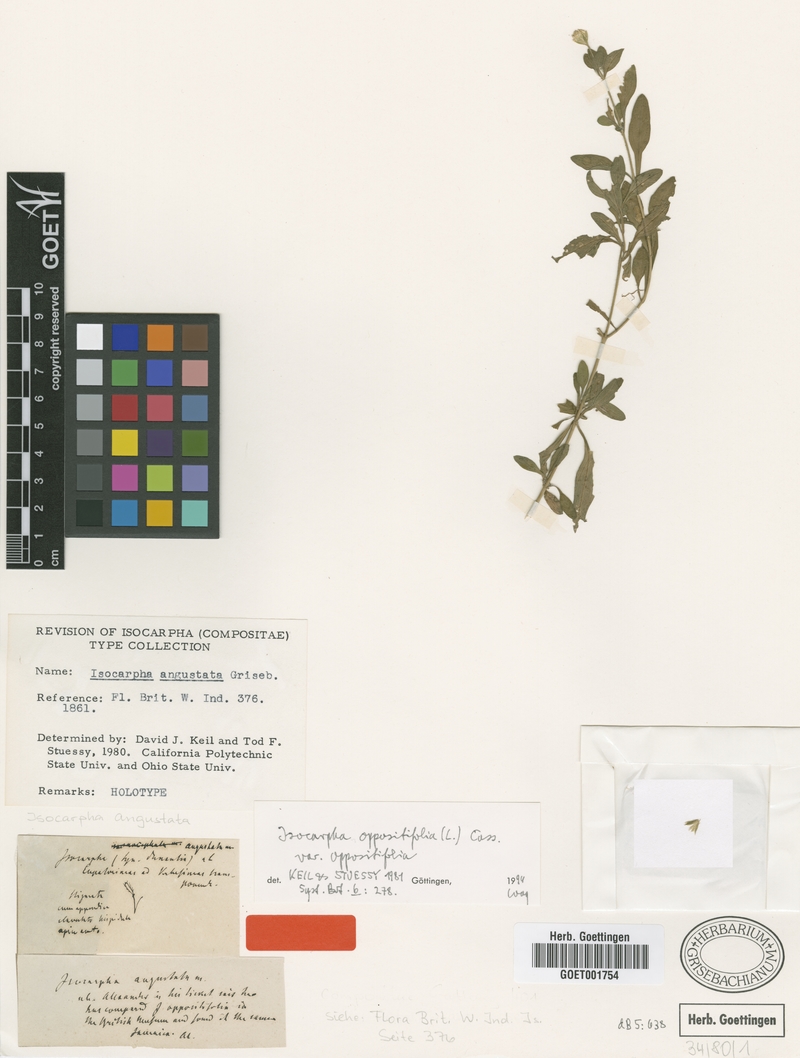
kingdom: Plantae
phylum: Tracheophyta
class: Magnoliopsida
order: Asterales
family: Asteraceae
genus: Isocarpha
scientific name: Isocarpha oppositifolia
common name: Rio grande pearlhead
